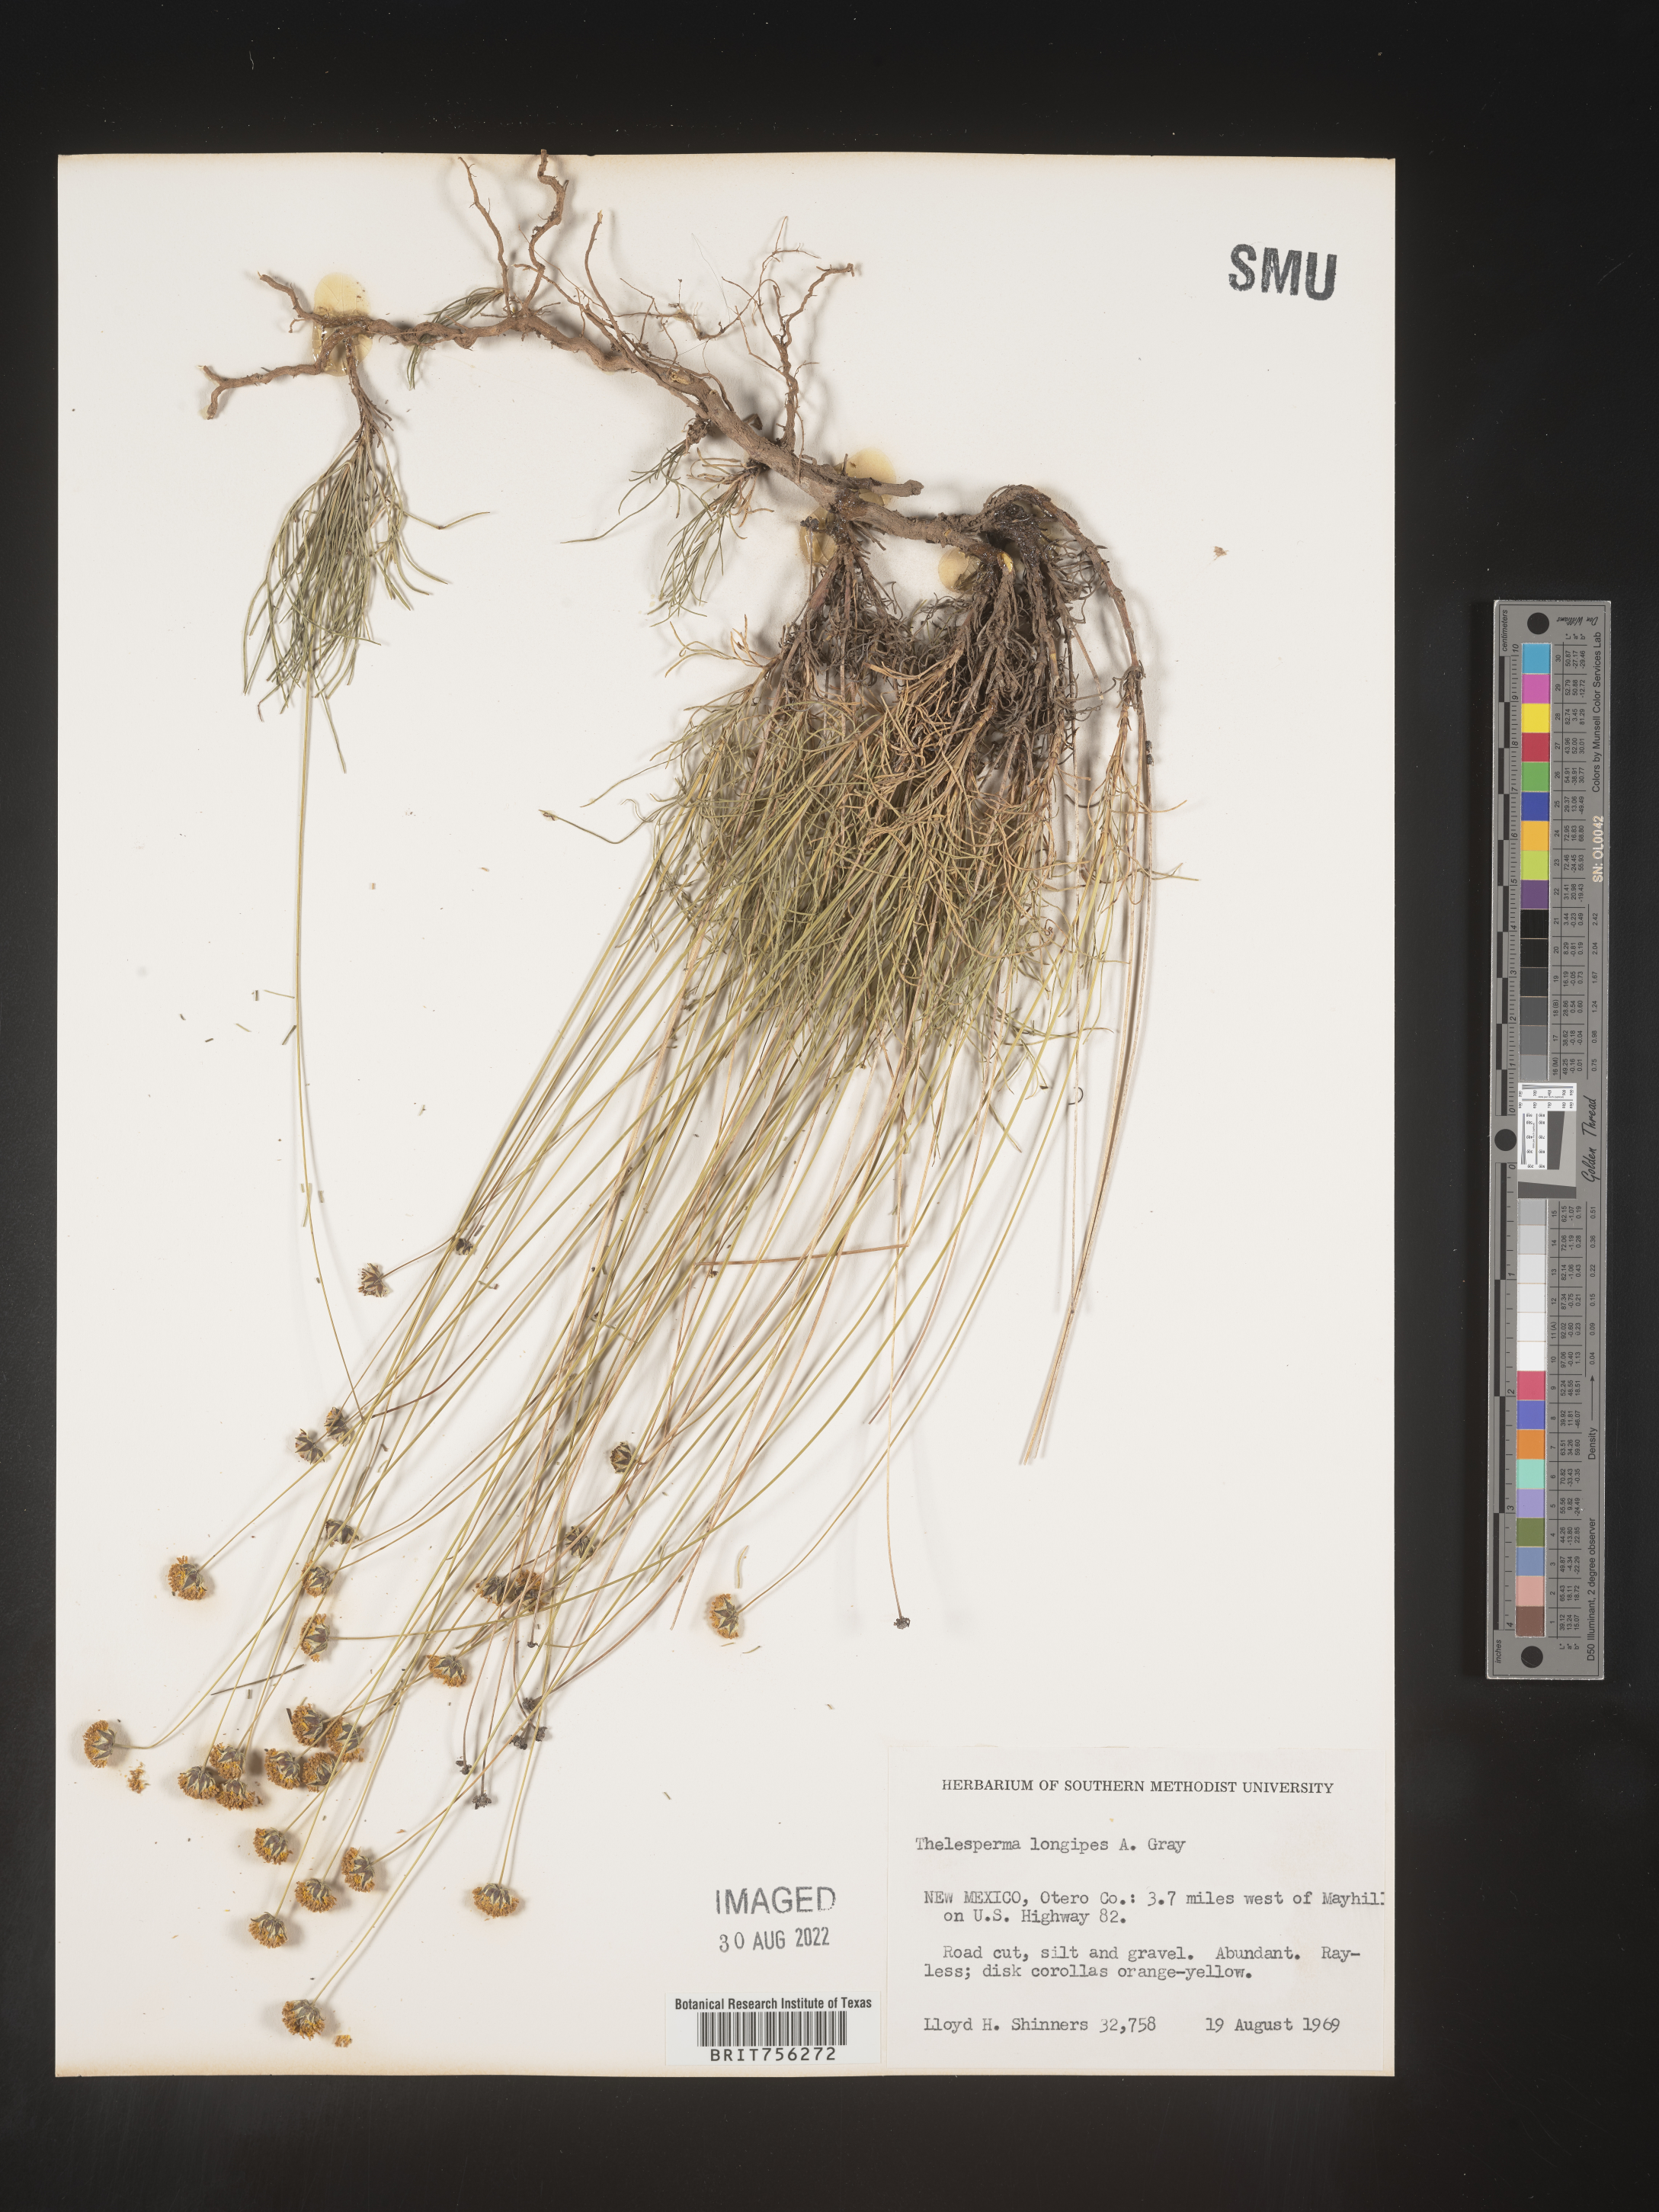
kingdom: Plantae
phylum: Tracheophyta
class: Magnoliopsida
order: Asterales
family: Asteraceae
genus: Thelesperma
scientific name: Thelesperma
